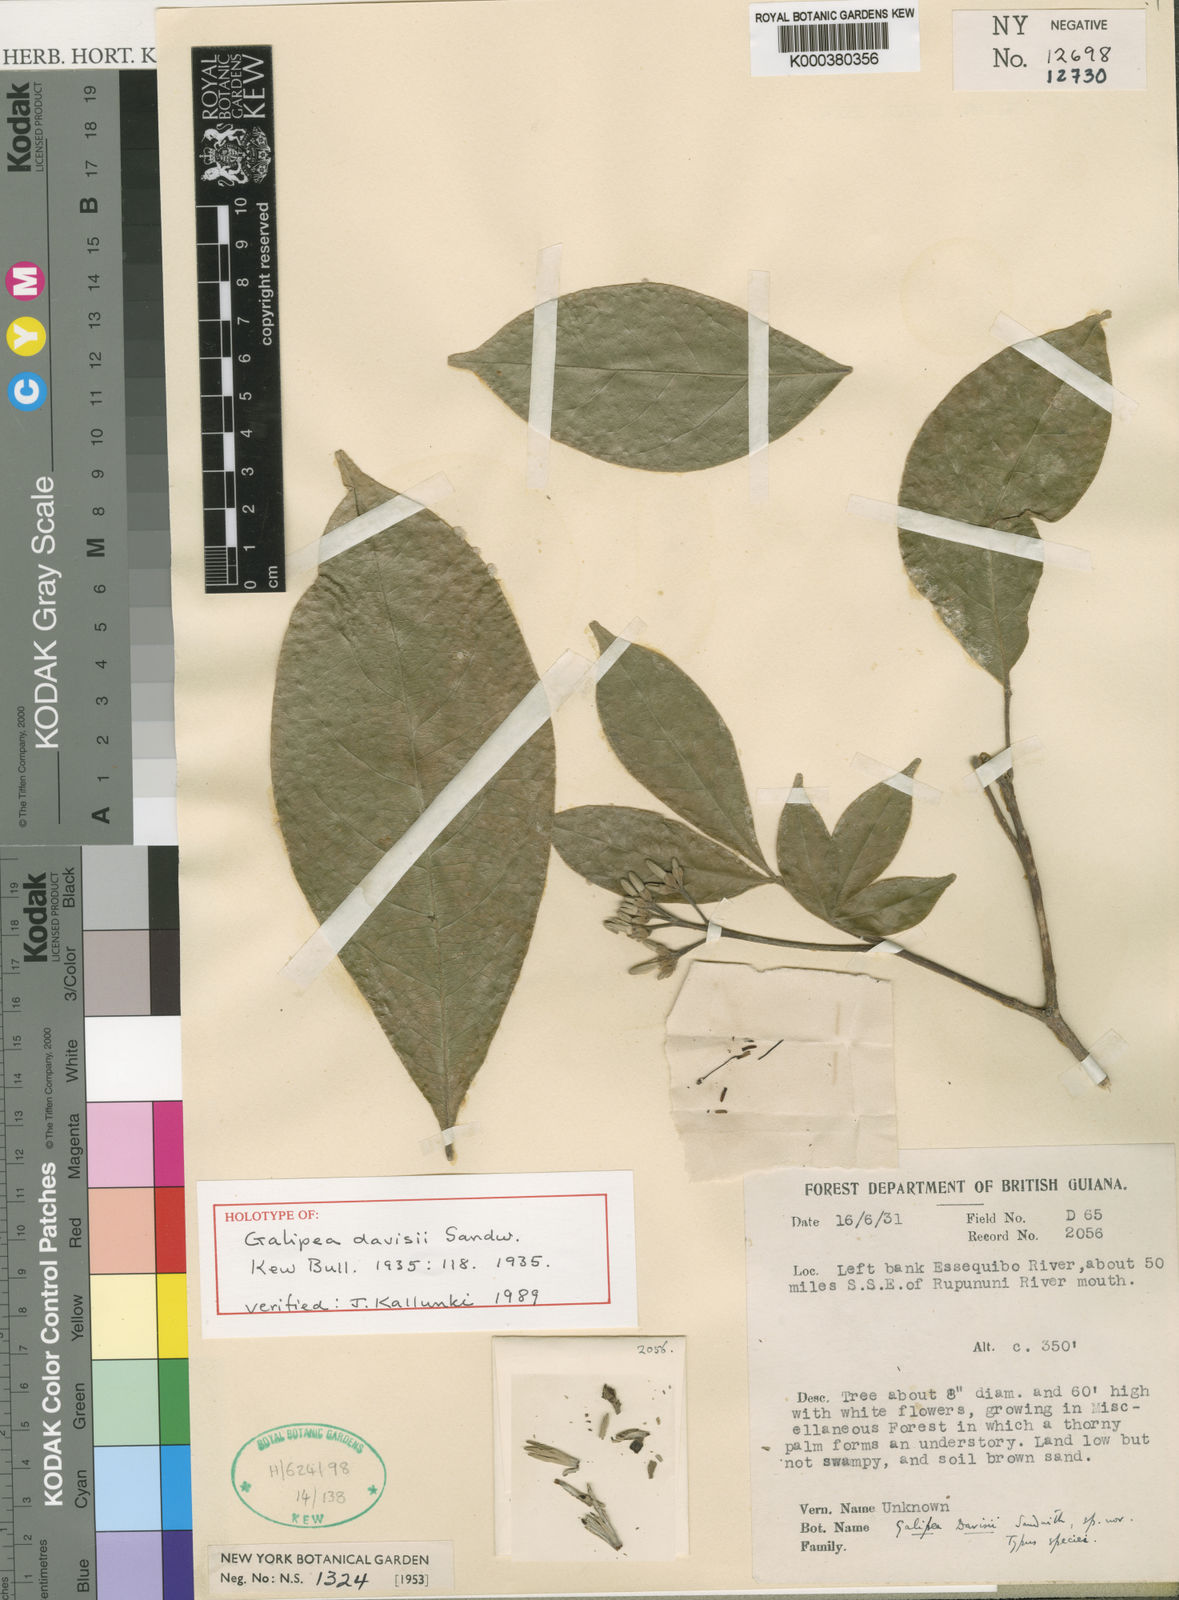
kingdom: Plantae
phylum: Tracheophyta
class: Magnoliopsida
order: Sapindales
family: Rutaceae
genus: Galipea
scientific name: Galipea davisii
